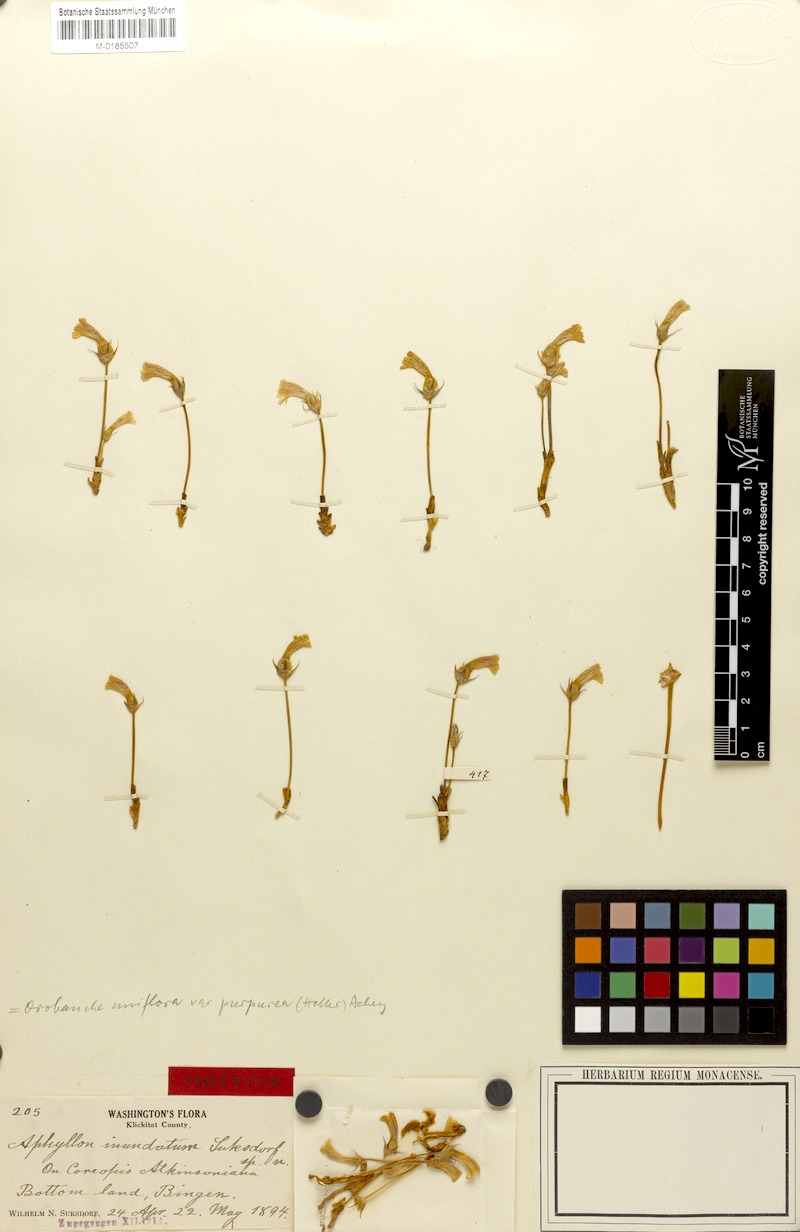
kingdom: Plantae
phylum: Tracheophyta
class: Magnoliopsida
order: Lamiales
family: Orobanchaceae
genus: Aphyllon
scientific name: Aphyllon uniflorum
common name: One-flowered broomrape
